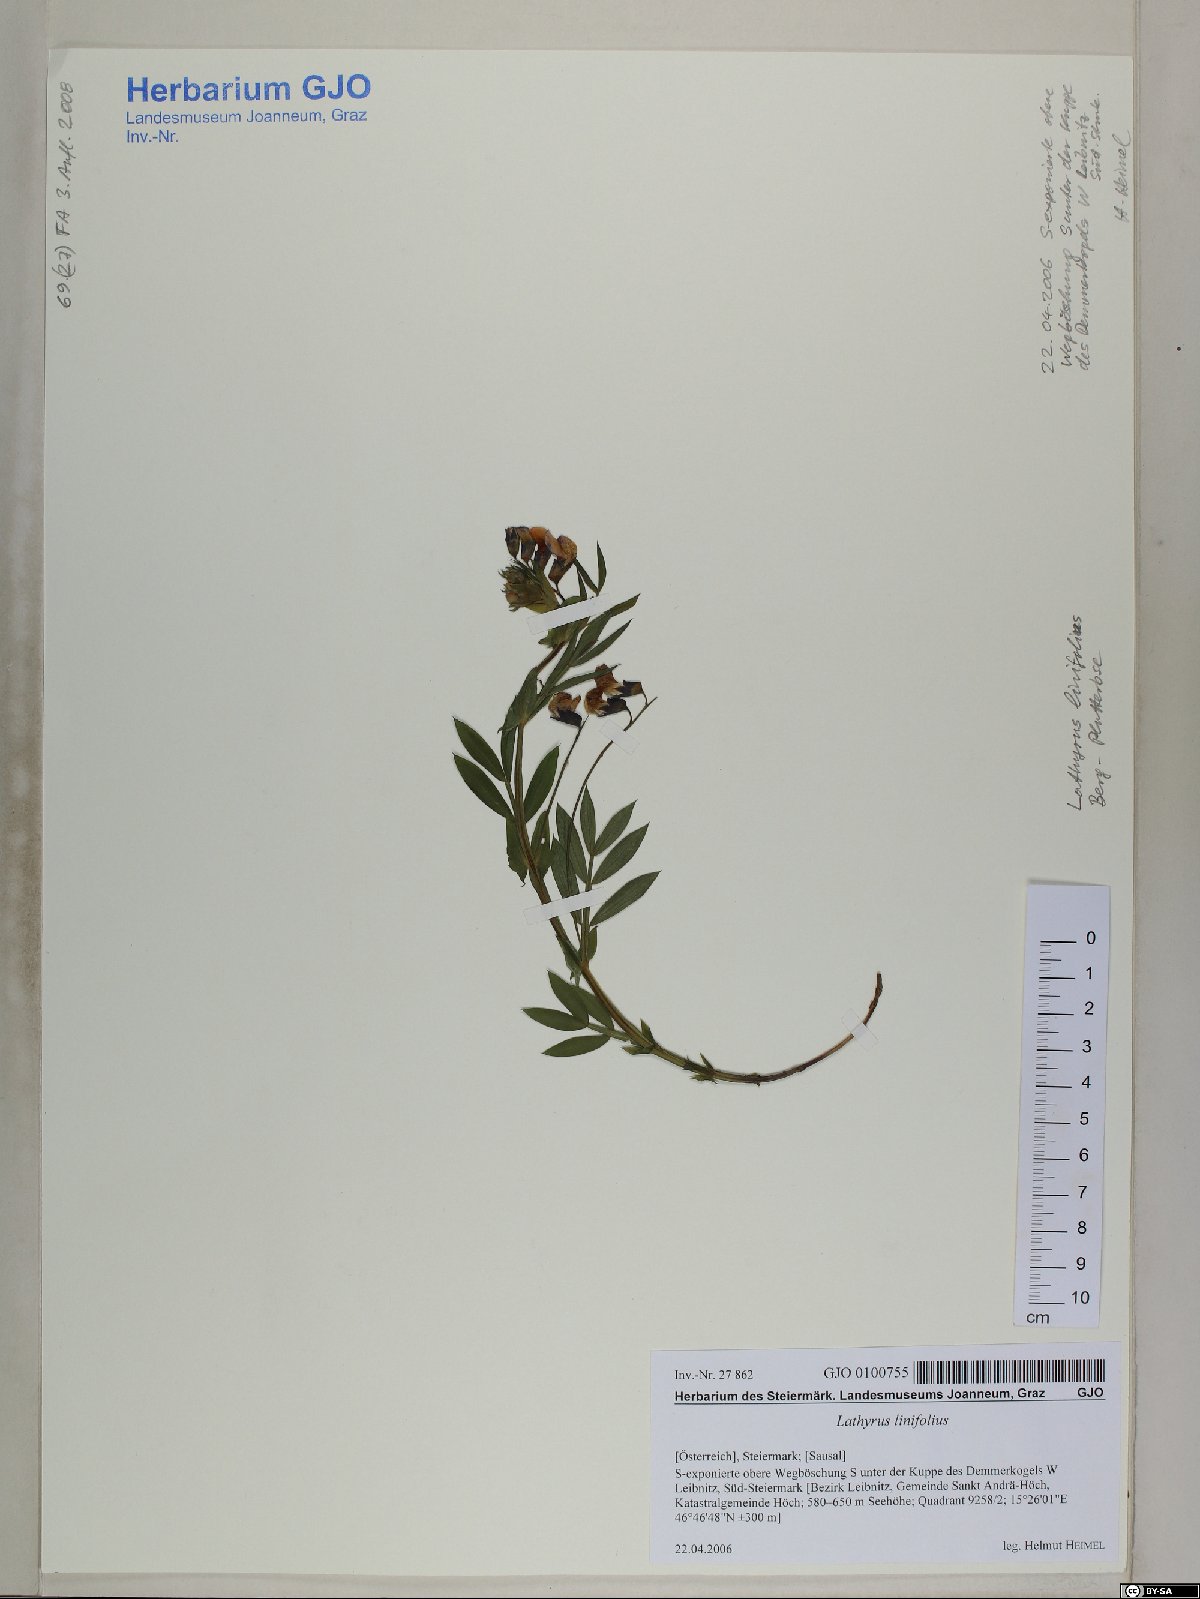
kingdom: Plantae
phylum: Tracheophyta
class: Magnoliopsida
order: Fabales
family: Fabaceae
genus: Lathyrus
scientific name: Lathyrus linifolius
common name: Bitter-vetch
